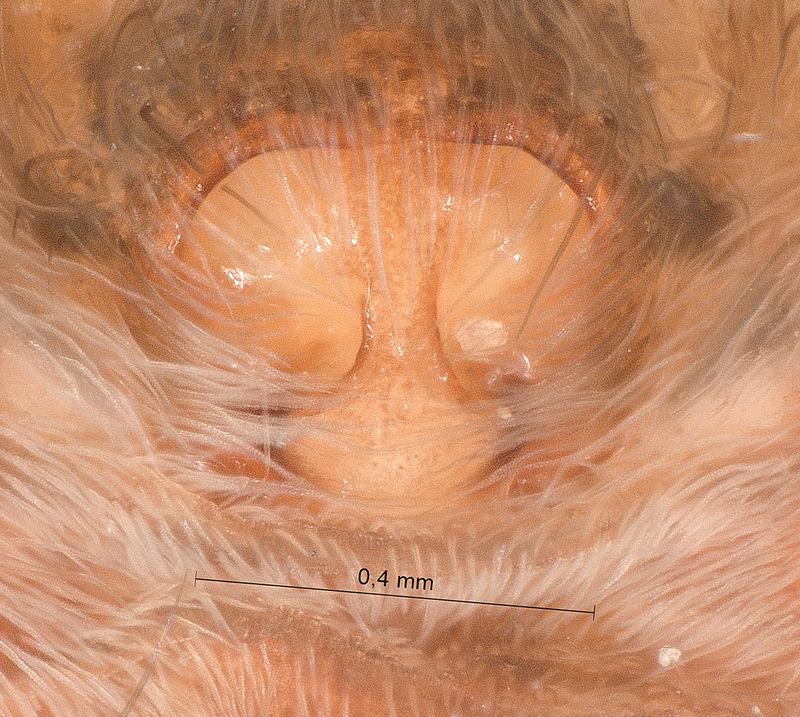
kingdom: Animalia
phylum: Arthropoda
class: Arachnida
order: Araneae
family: Lycosidae
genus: Pardosa
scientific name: Pardosa amentata
